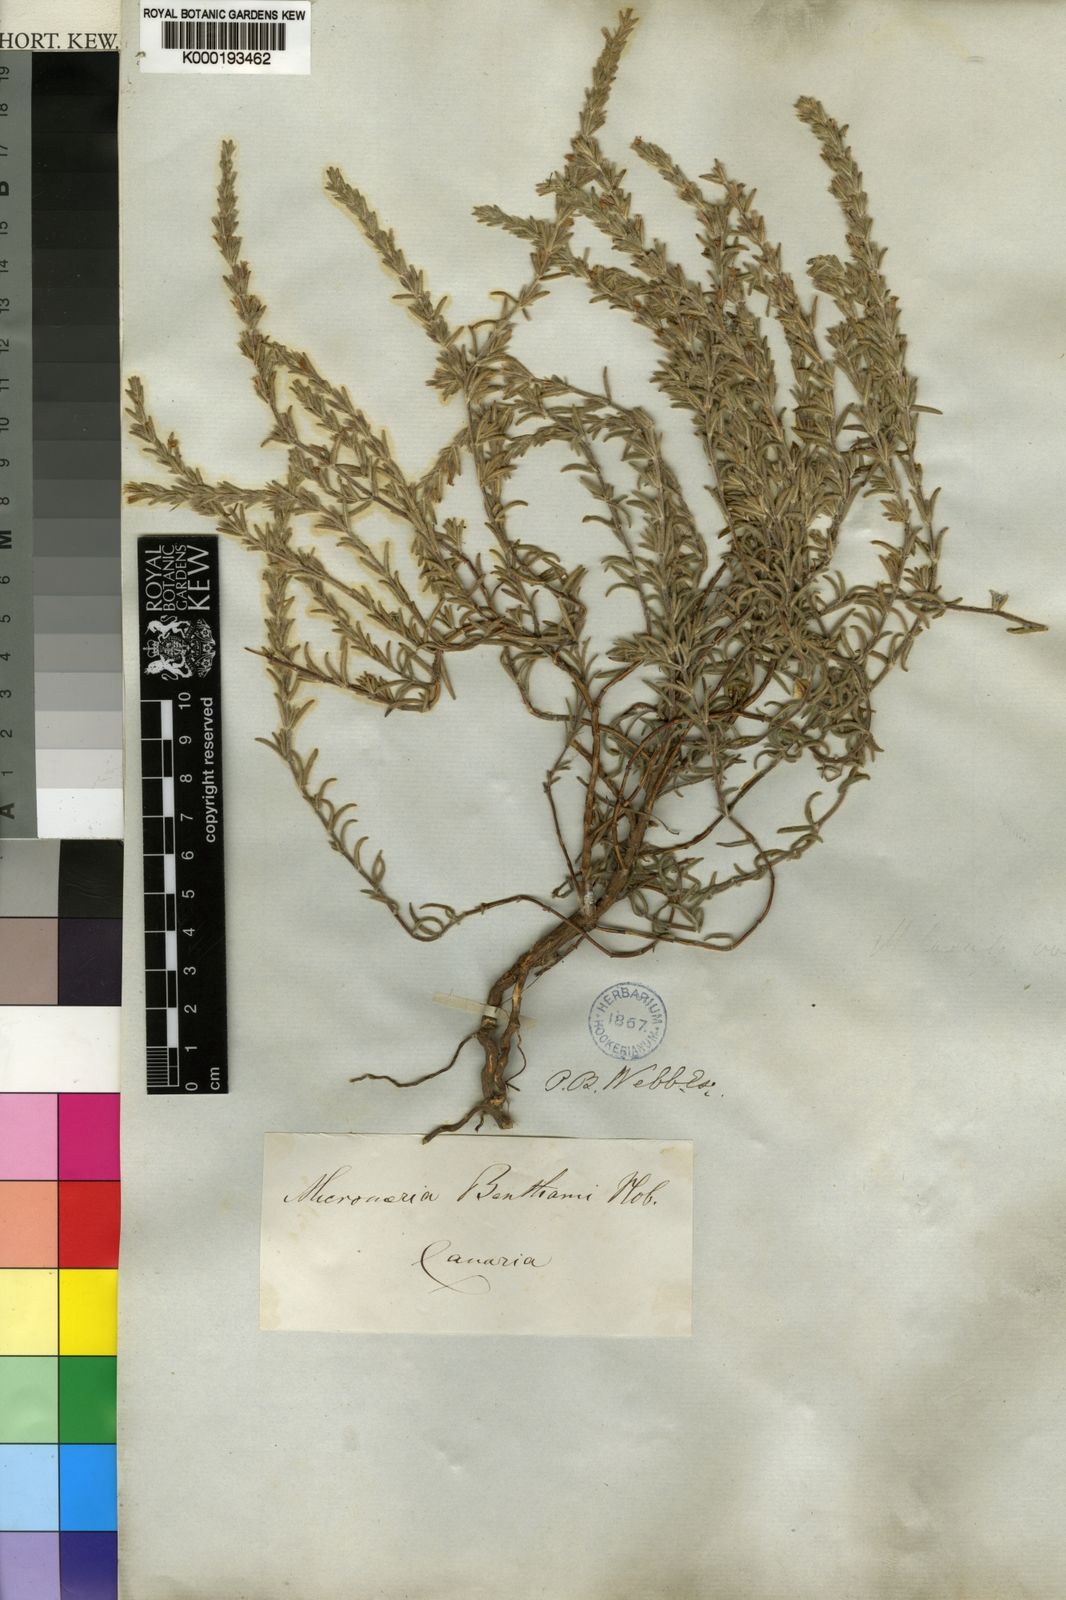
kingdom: Plantae
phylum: Tracheophyta
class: Magnoliopsida
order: Lamiales
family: Lamiaceae
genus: Micromeria
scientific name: Micromeria benthamii
